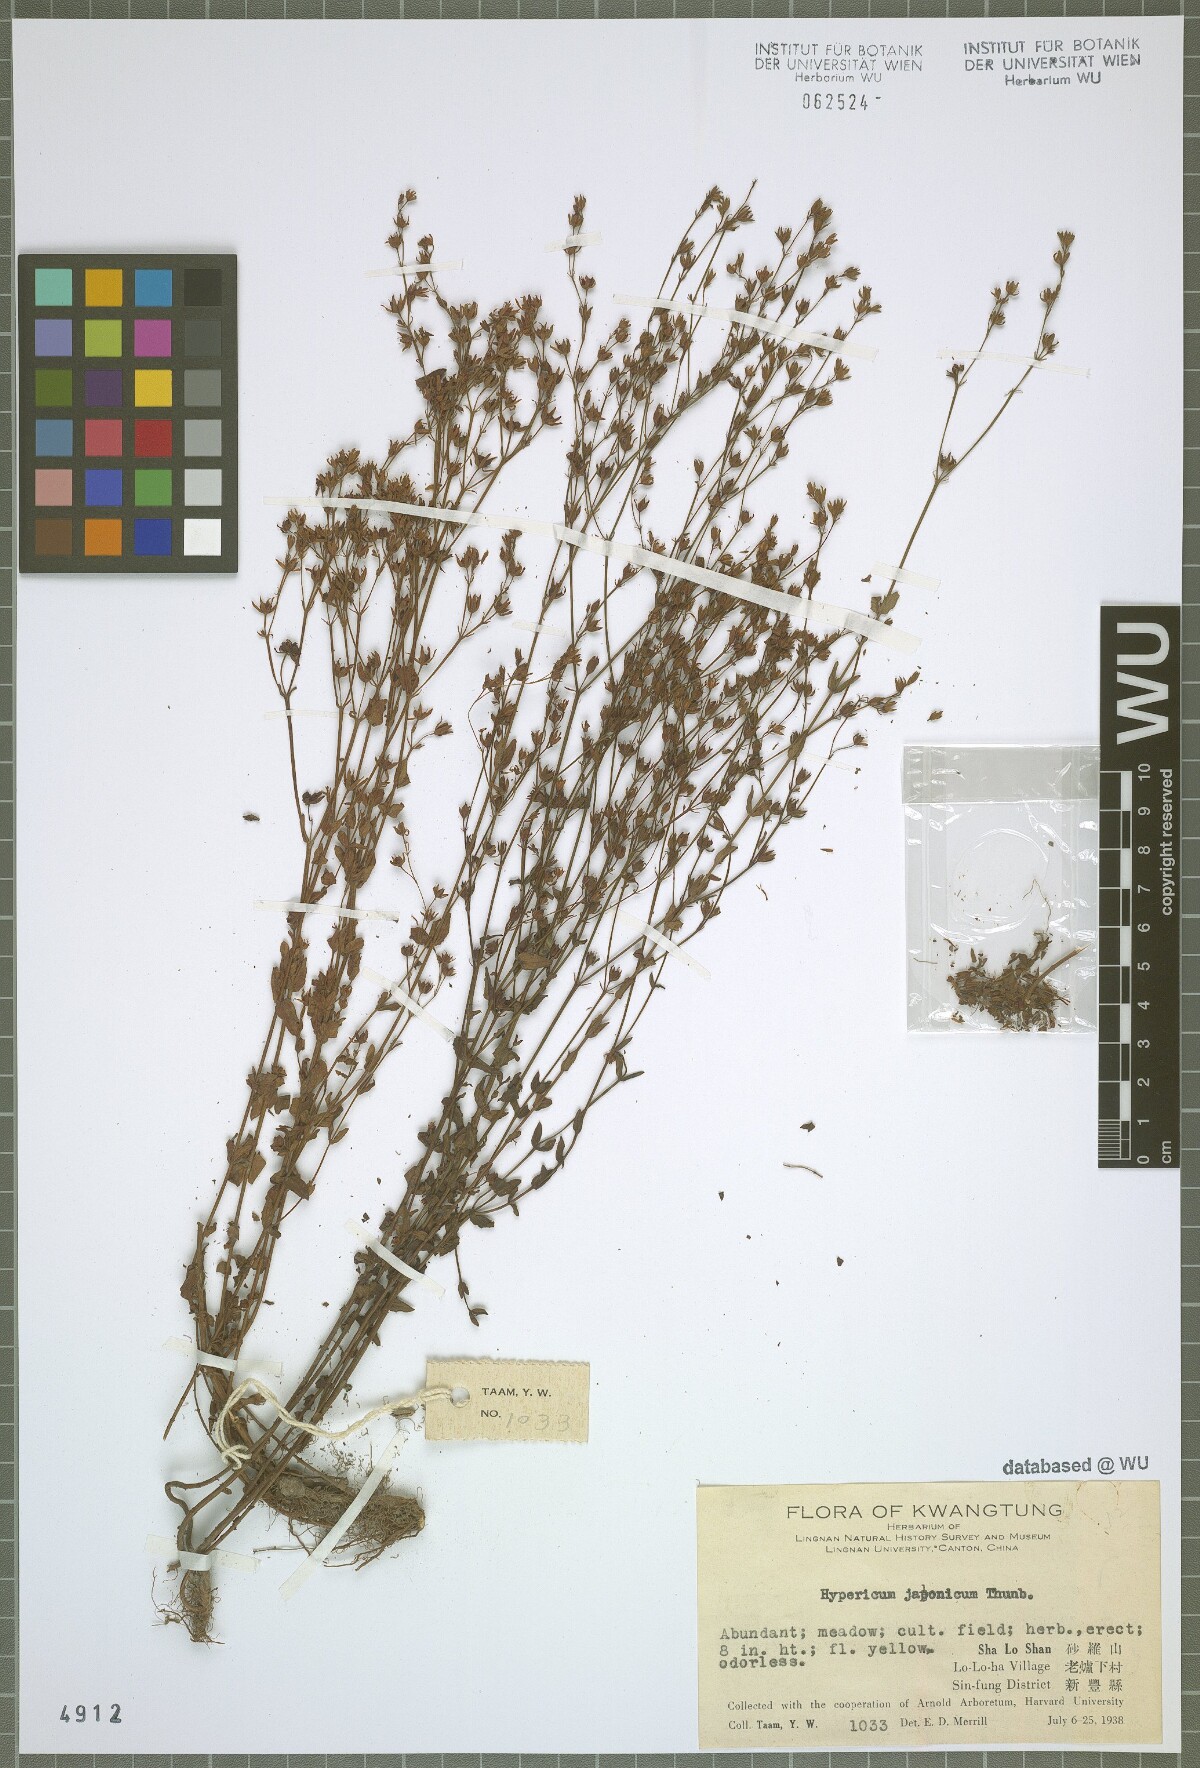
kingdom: Plantae
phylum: Tracheophyta
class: Magnoliopsida
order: Malpighiales
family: Hypericaceae
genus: Hypericum
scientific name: Hypericum japonicum
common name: Matted st. john's-wort
